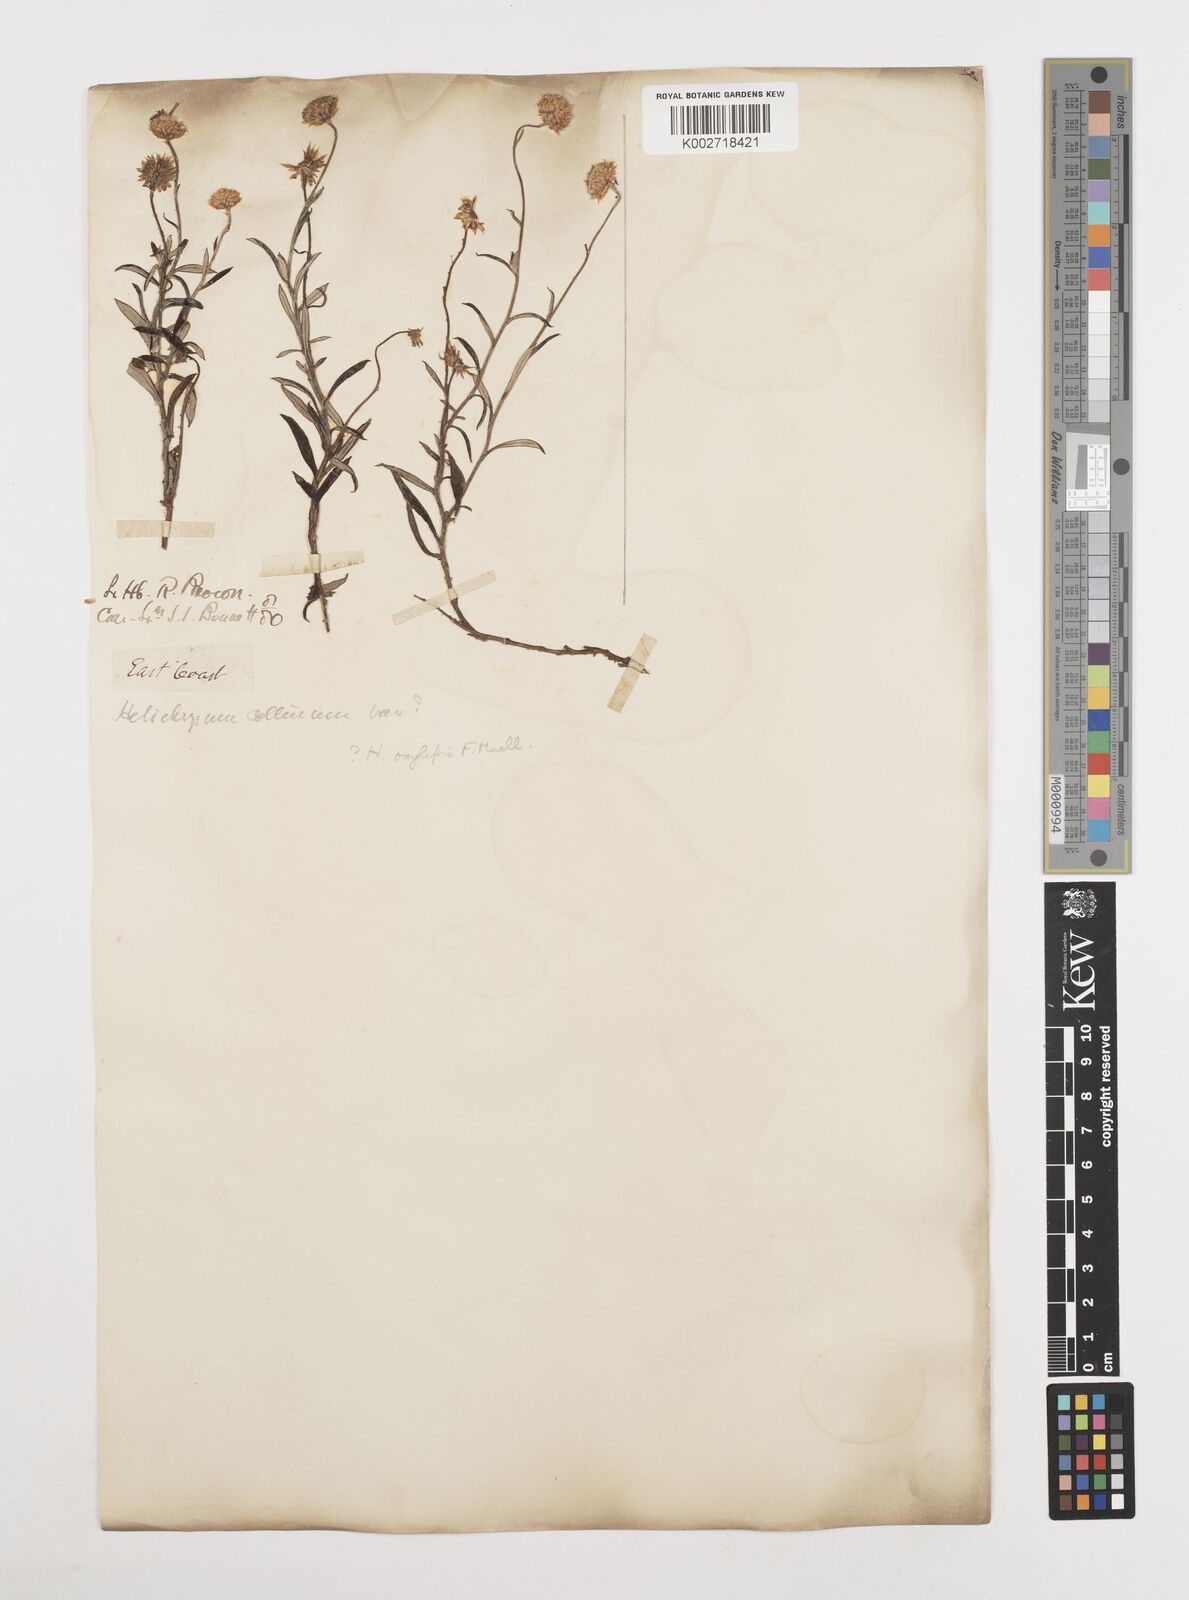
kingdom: Plantae
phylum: Tracheophyta
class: Magnoliopsida
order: Asterales
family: Asteraceae
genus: Coronidium
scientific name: Coronidium oxylepis
